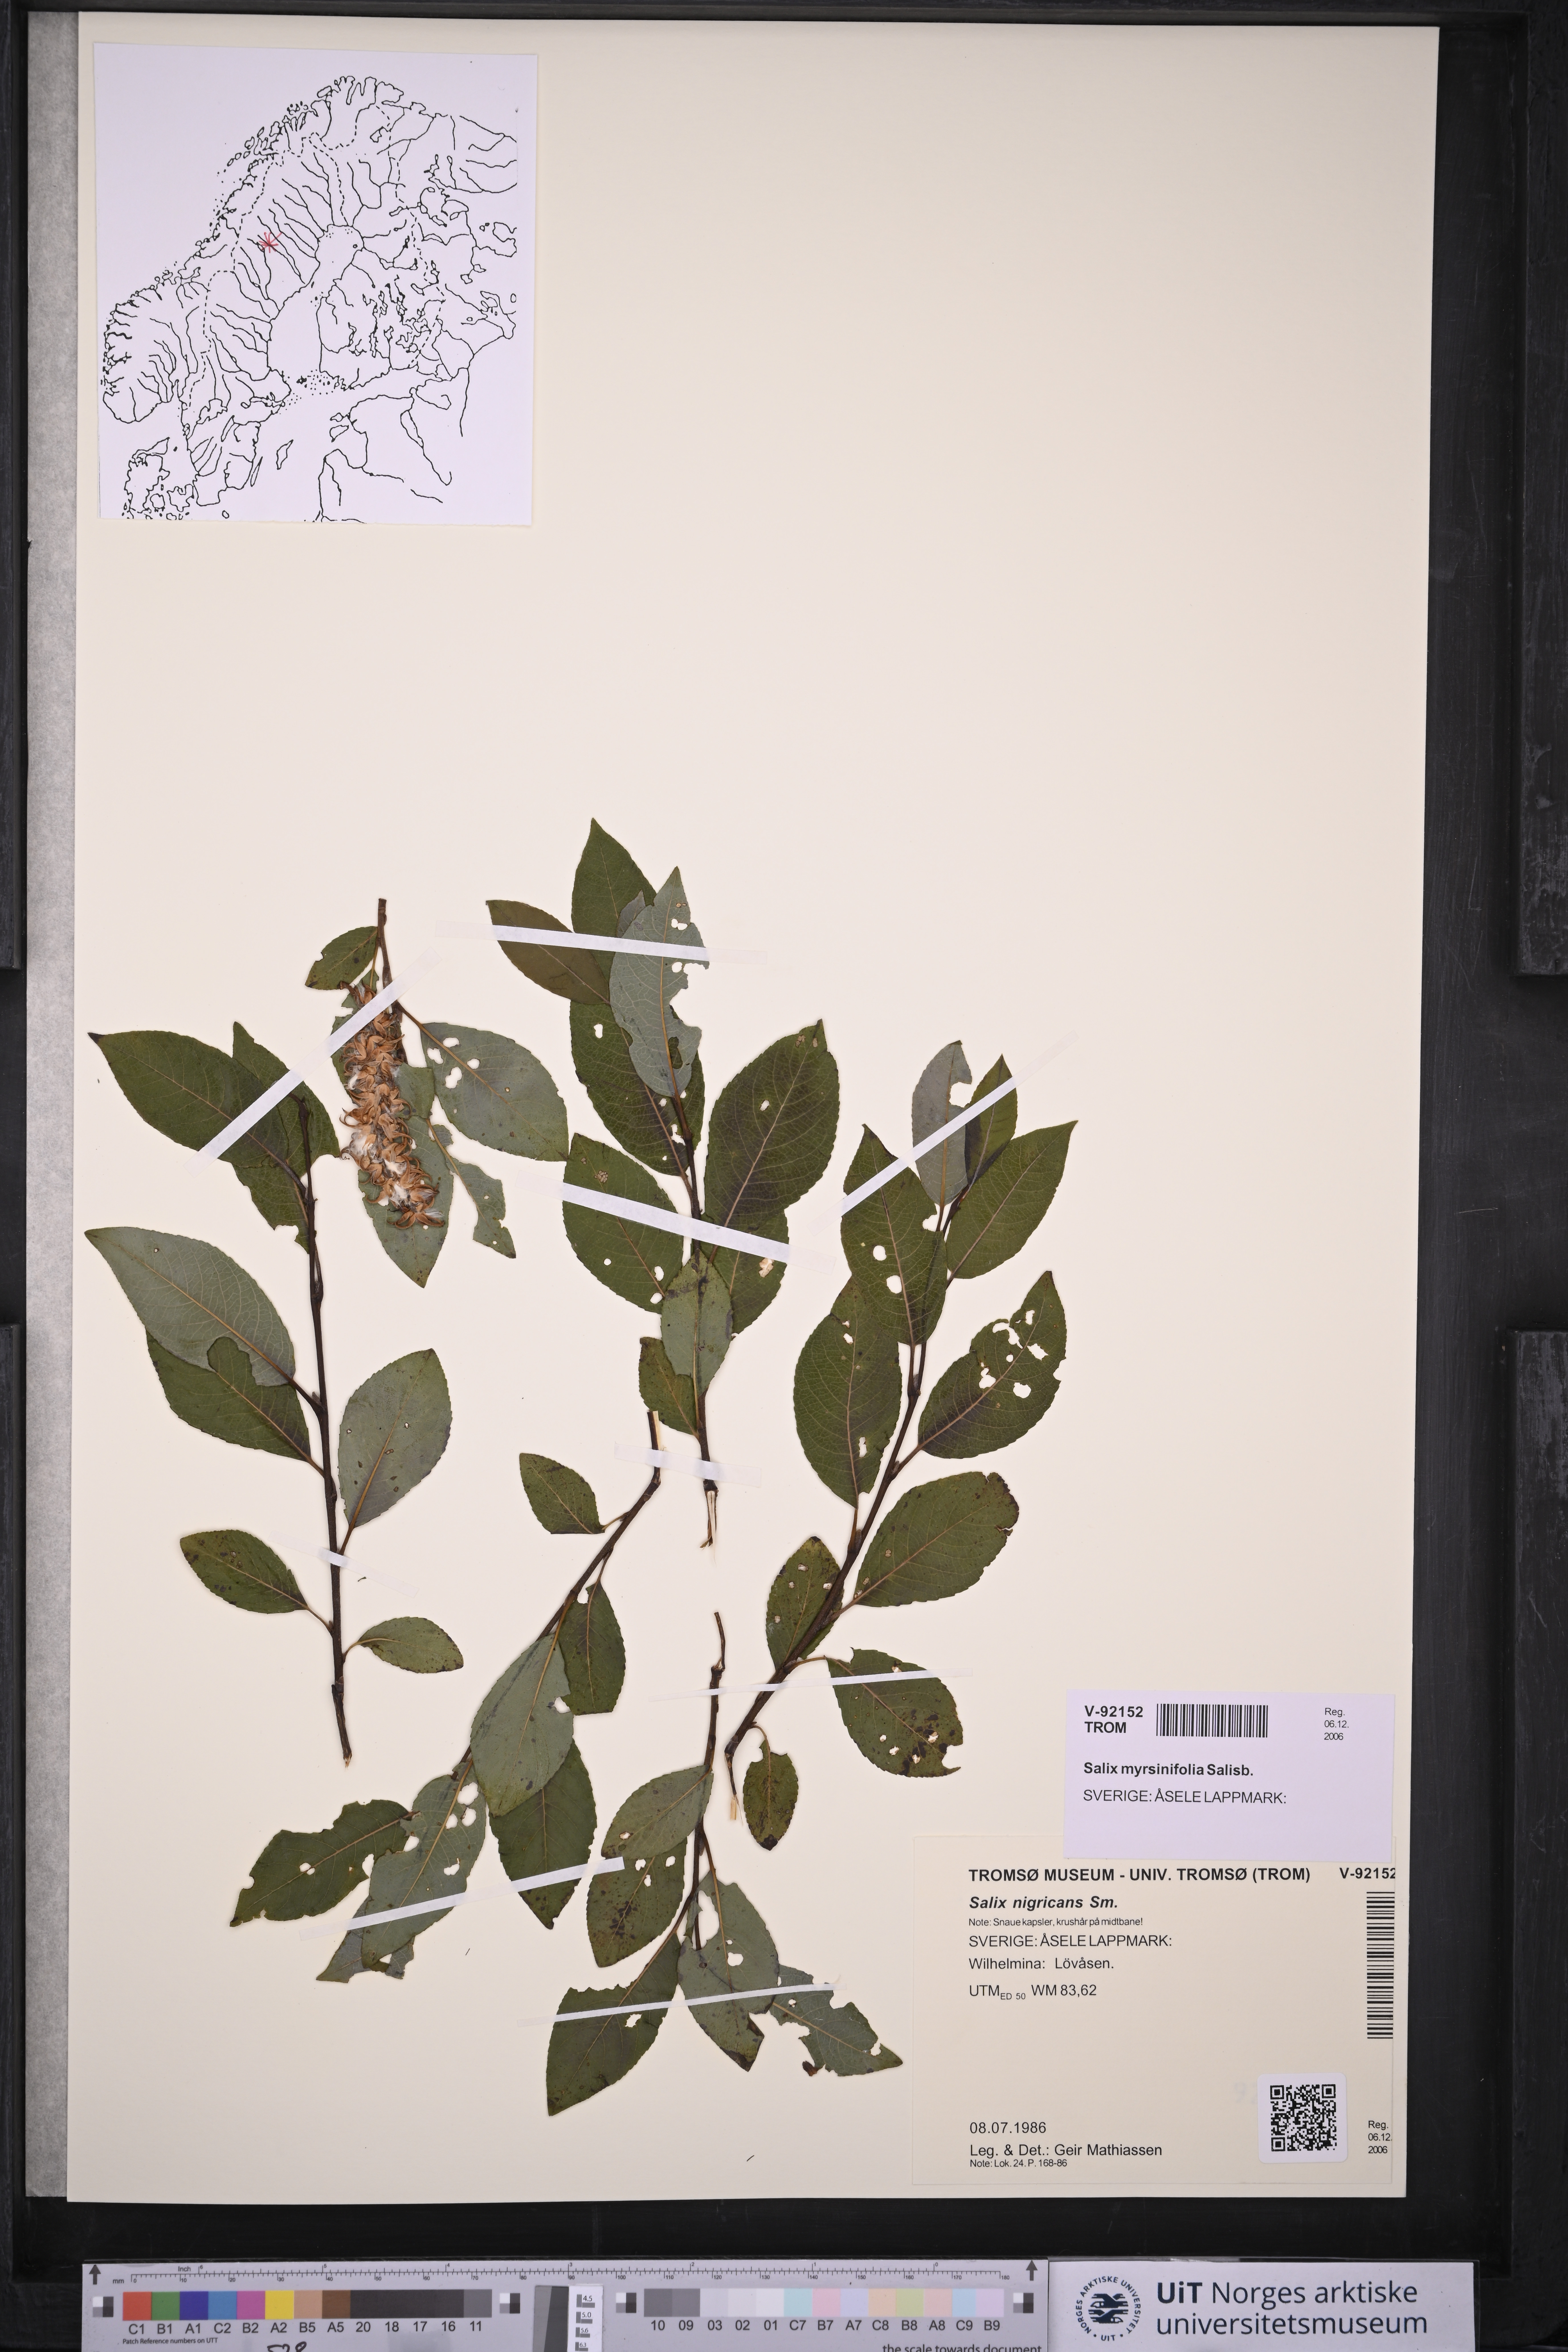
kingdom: Plantae
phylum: Tracheophyta
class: Magnoliopsida
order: Malpighiales
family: Salicaceae
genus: Salix
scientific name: Salix myrsinifolia
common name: Dark-leaved willow
